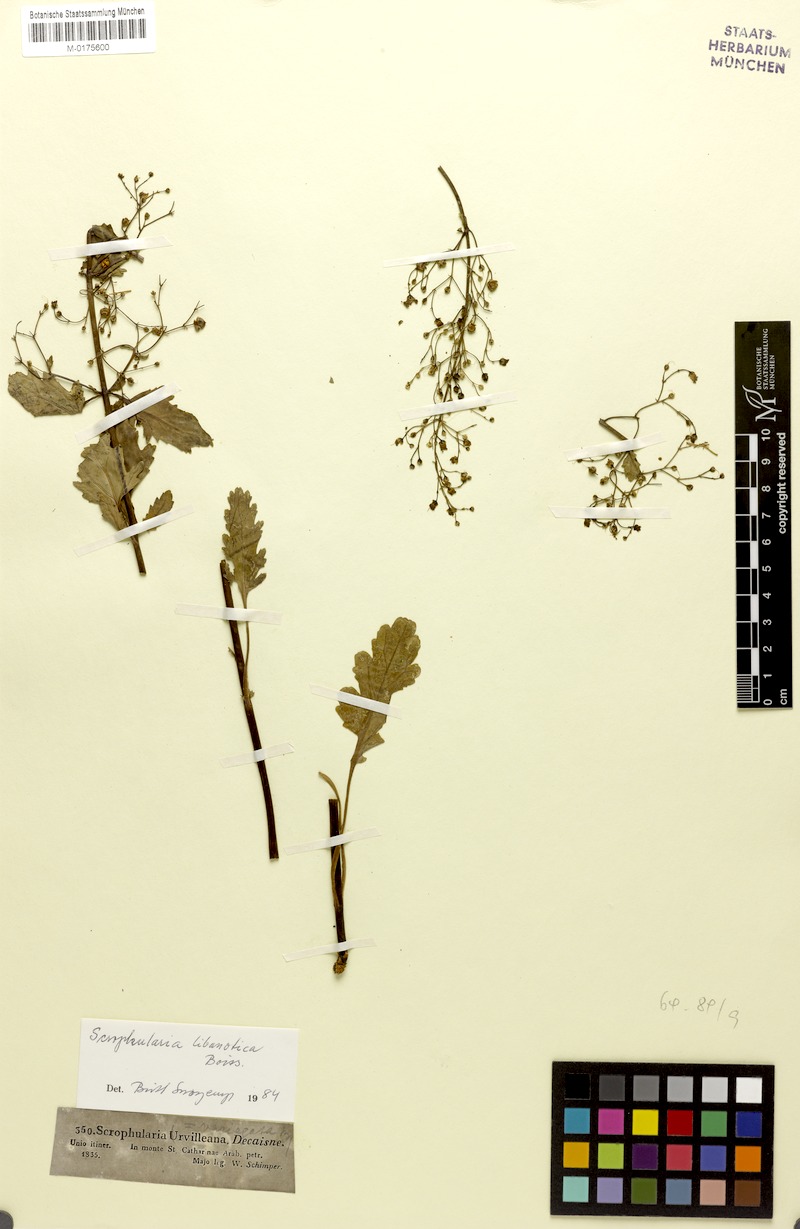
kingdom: Plantae
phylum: Tracheophyta
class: Magnoliopsida
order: Lamiales
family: Scrophulariaceae
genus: Scrophularia
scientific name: Scrophularia libanotica
